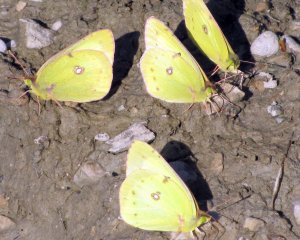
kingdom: Animalia
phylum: Arthropoda
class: Insecta
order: Lepidoptera
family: Pieridae
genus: Colias
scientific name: Colias philodice
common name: Clouded Sulphur
